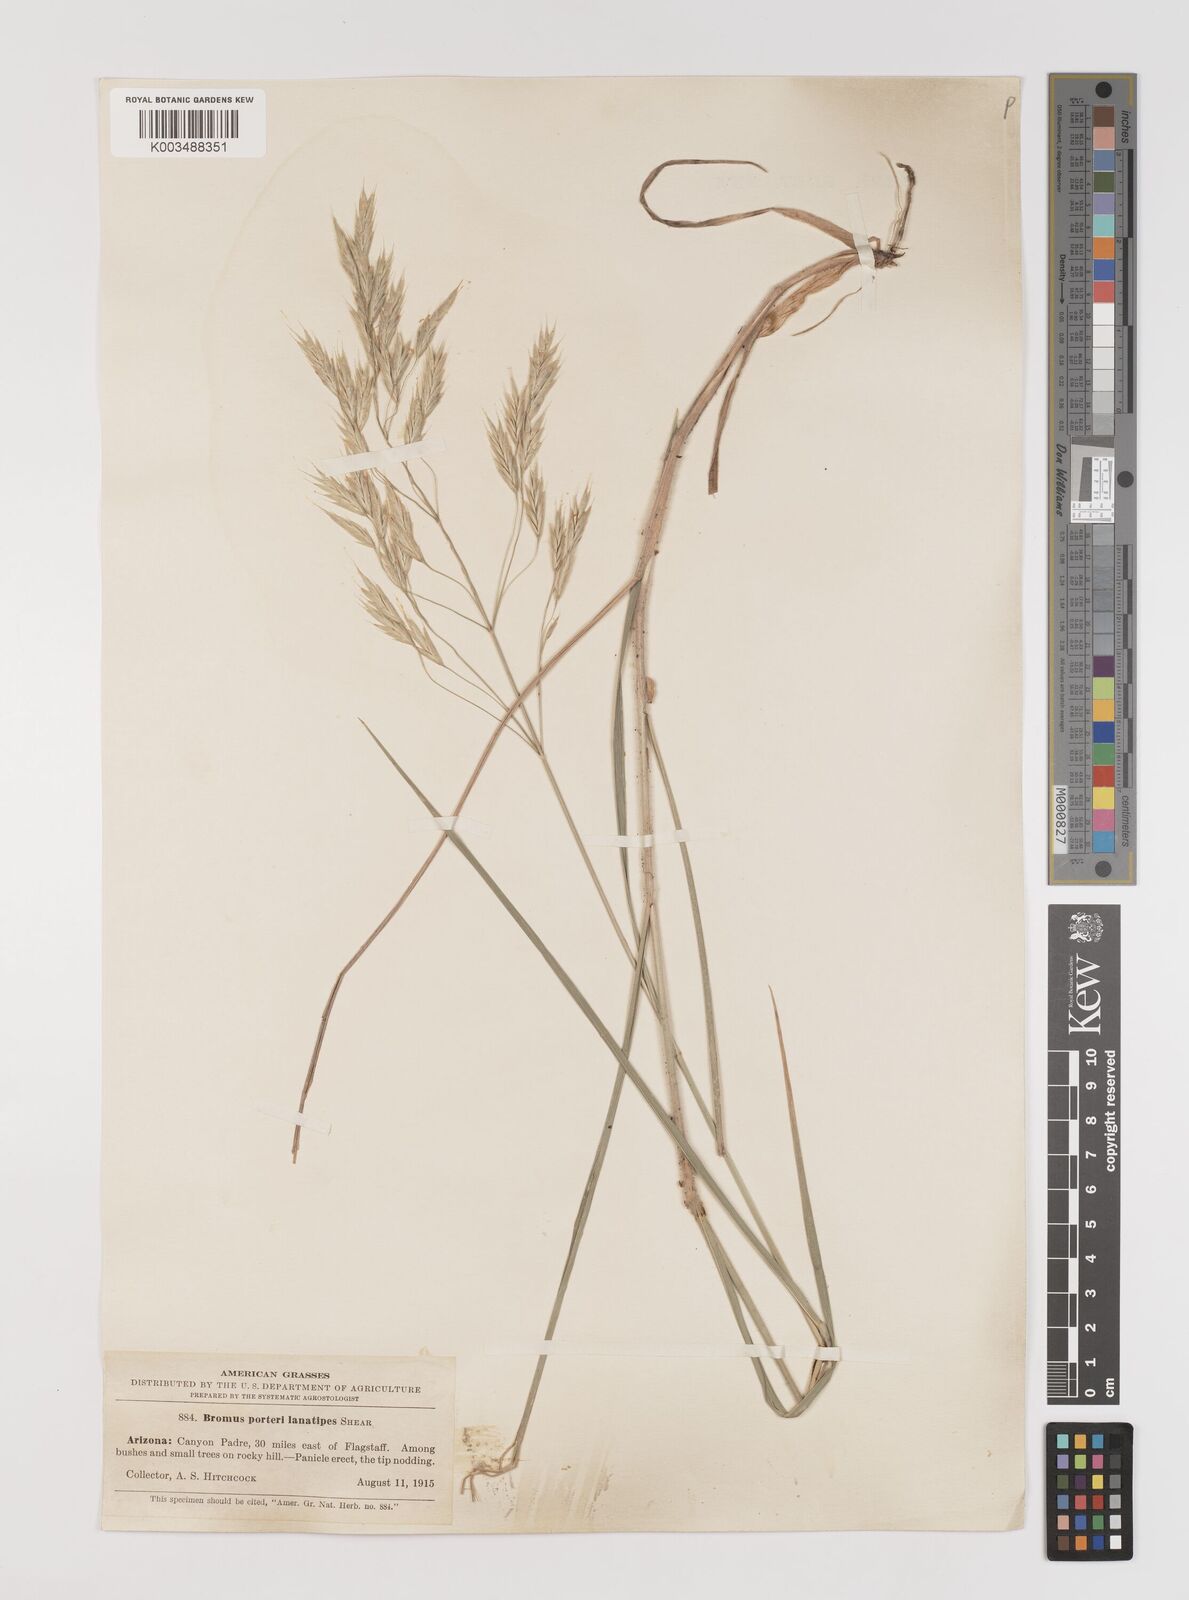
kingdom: Plantae
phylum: Tracheophyta
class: Liliopsida
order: Poales
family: Poaceae
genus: Bromus
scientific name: Bromus lanatipes
